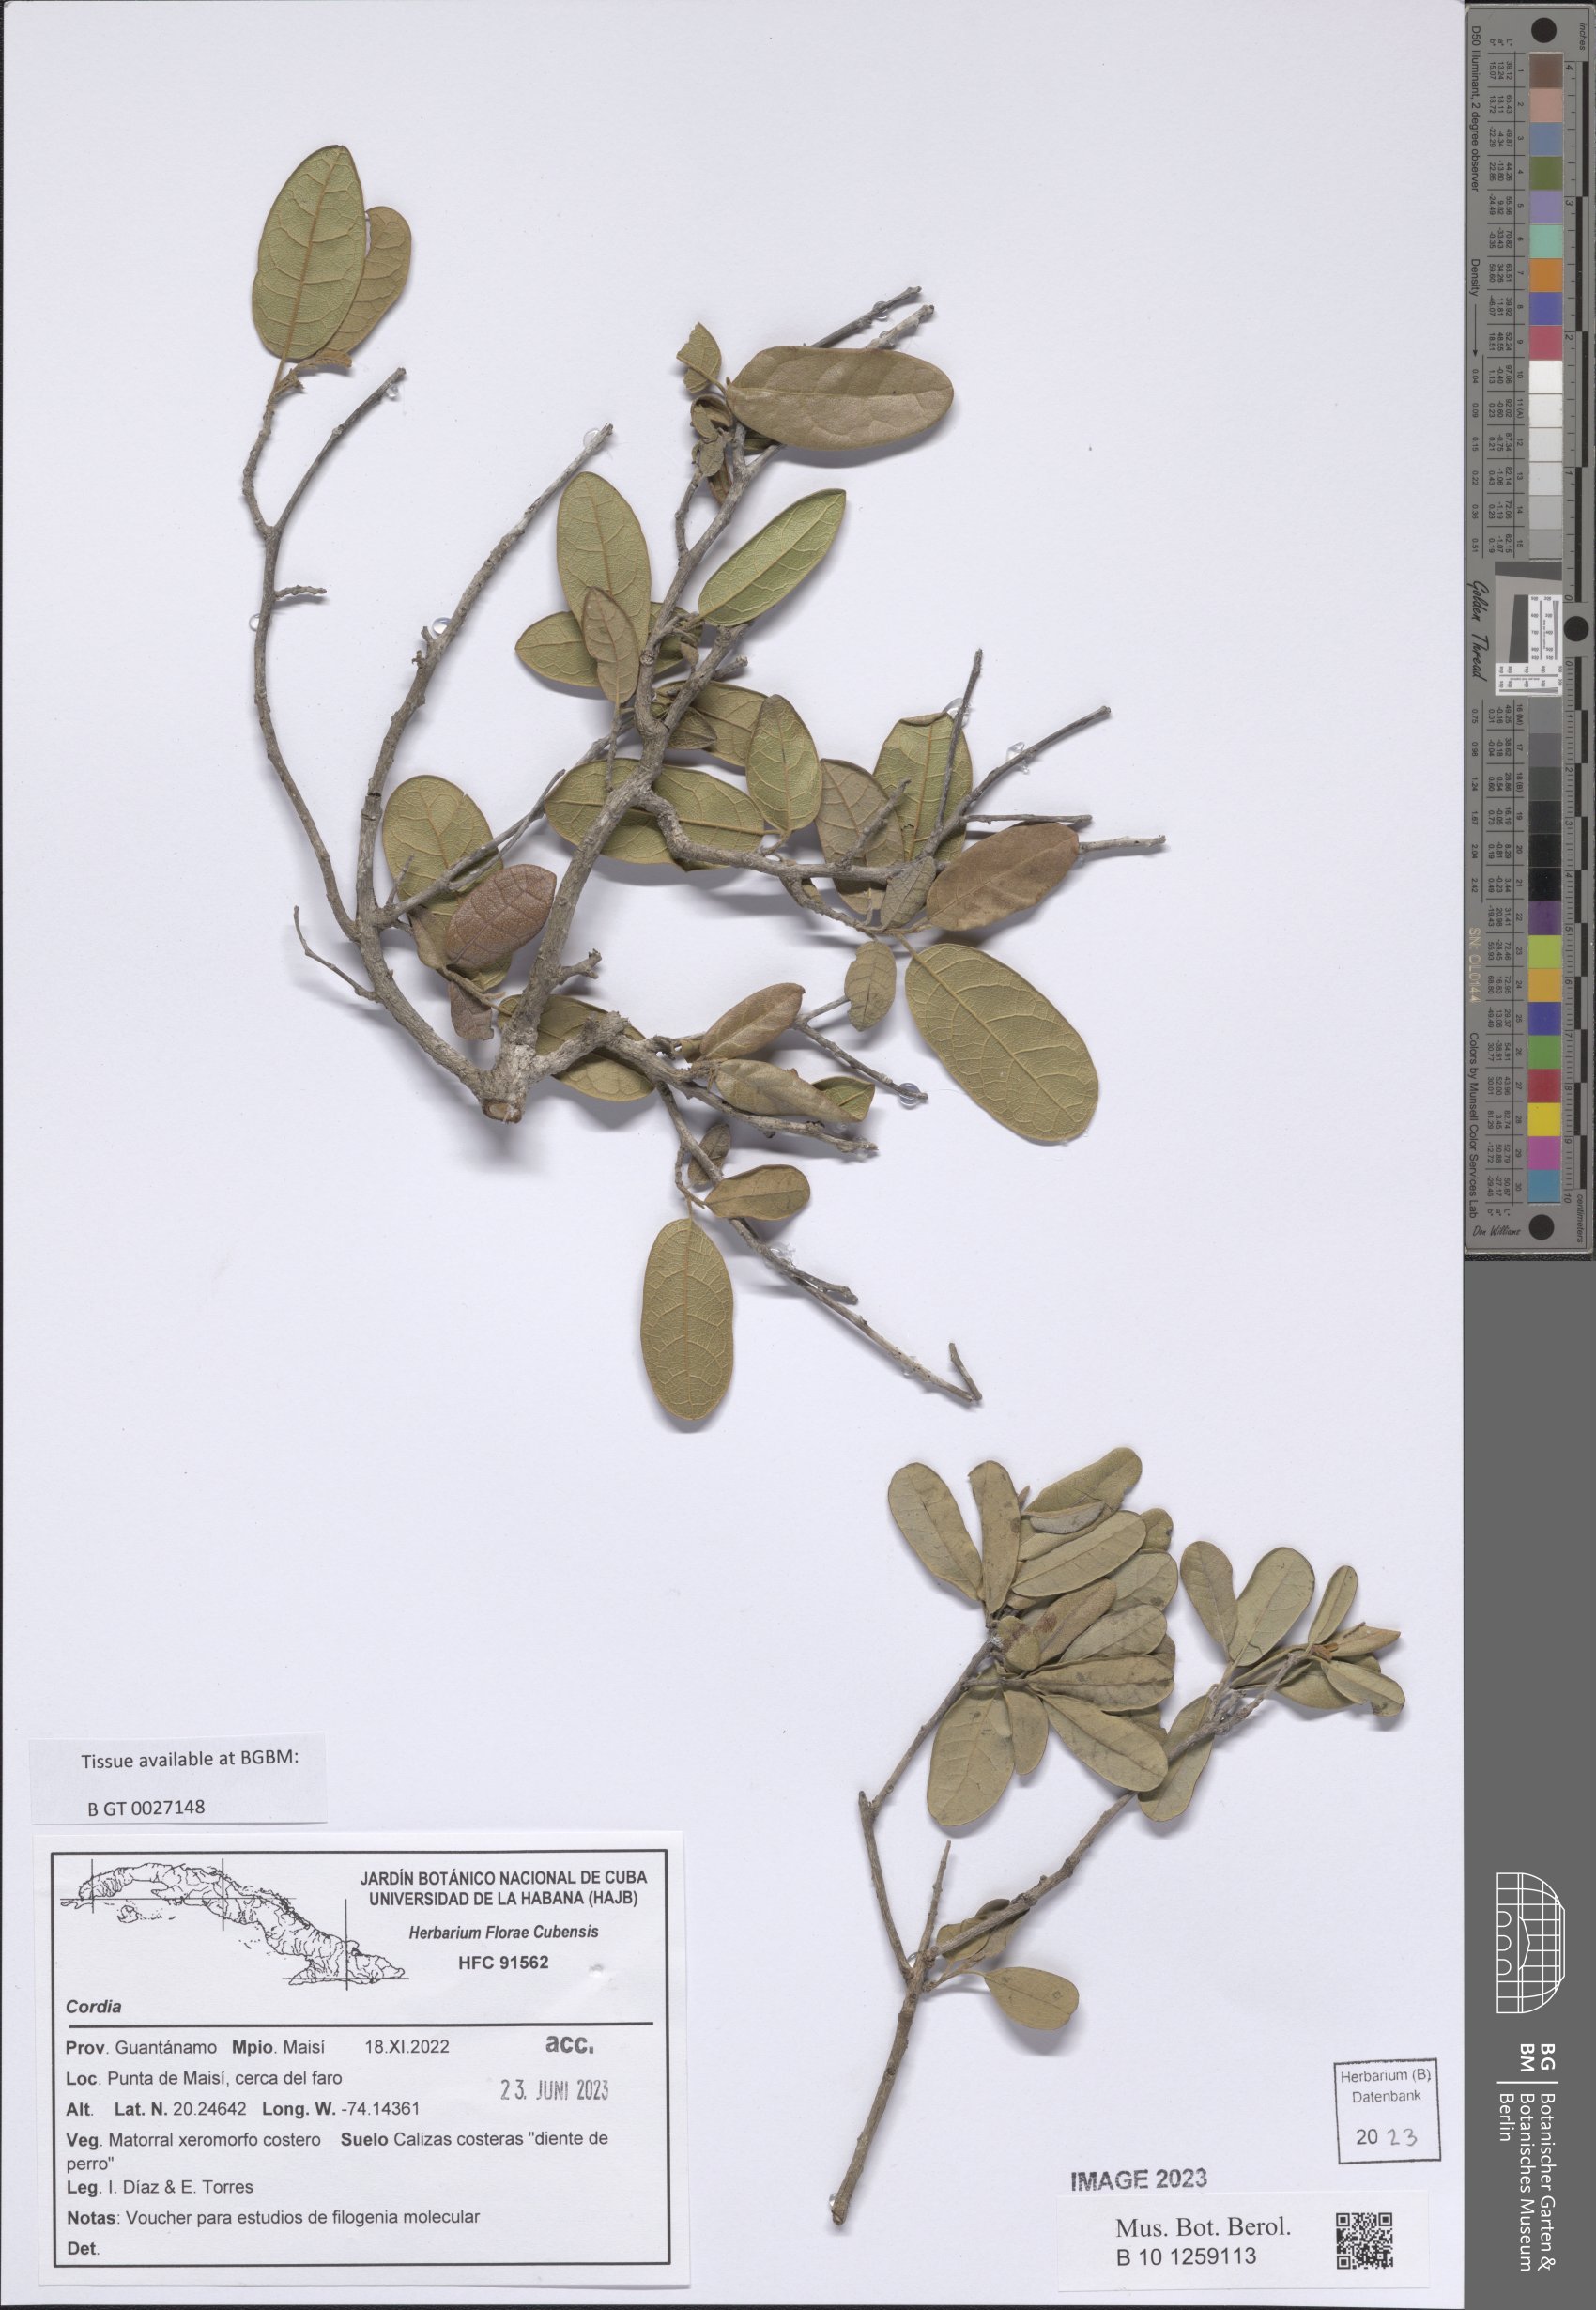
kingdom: Plantae
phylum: Tracheophyta
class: Magnoliopsida
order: Boraginales
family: Cordiaceae
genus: Cordia
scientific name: Cordia
